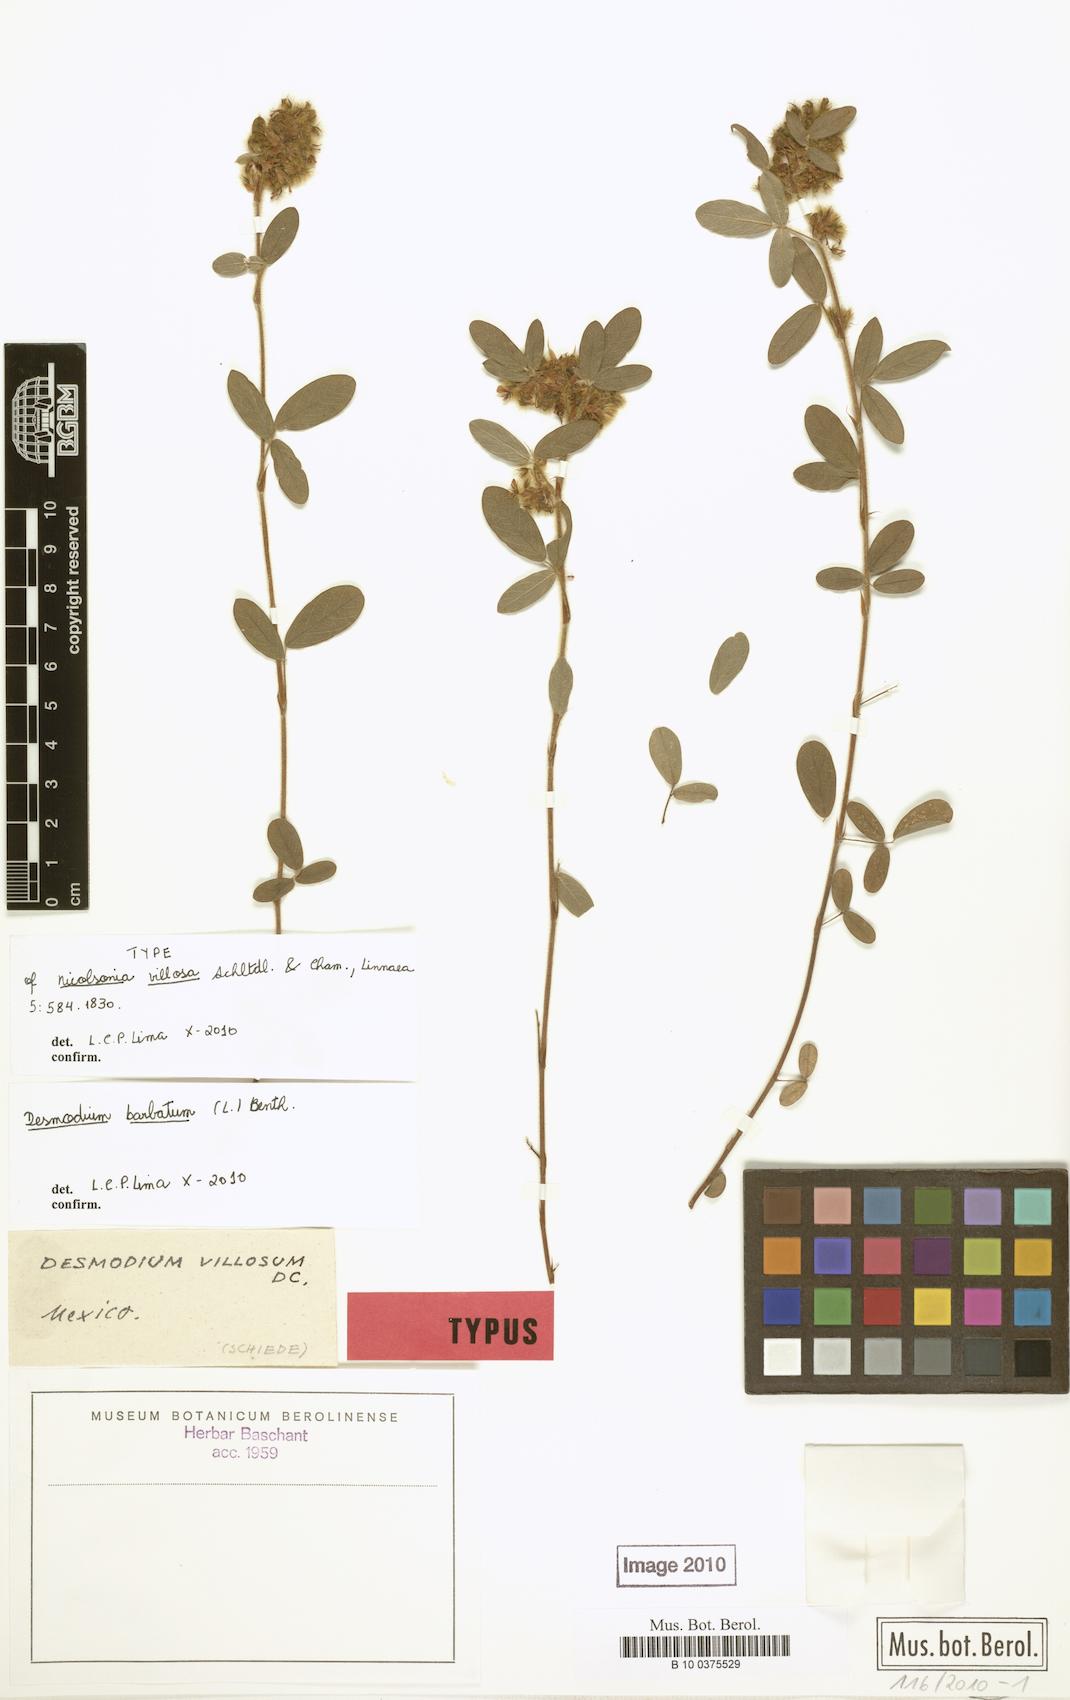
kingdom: Plantae
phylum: Tracheophyta
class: Magnoliopsida
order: Fabales
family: Fabaceae
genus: Grona
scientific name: Grona barbata
